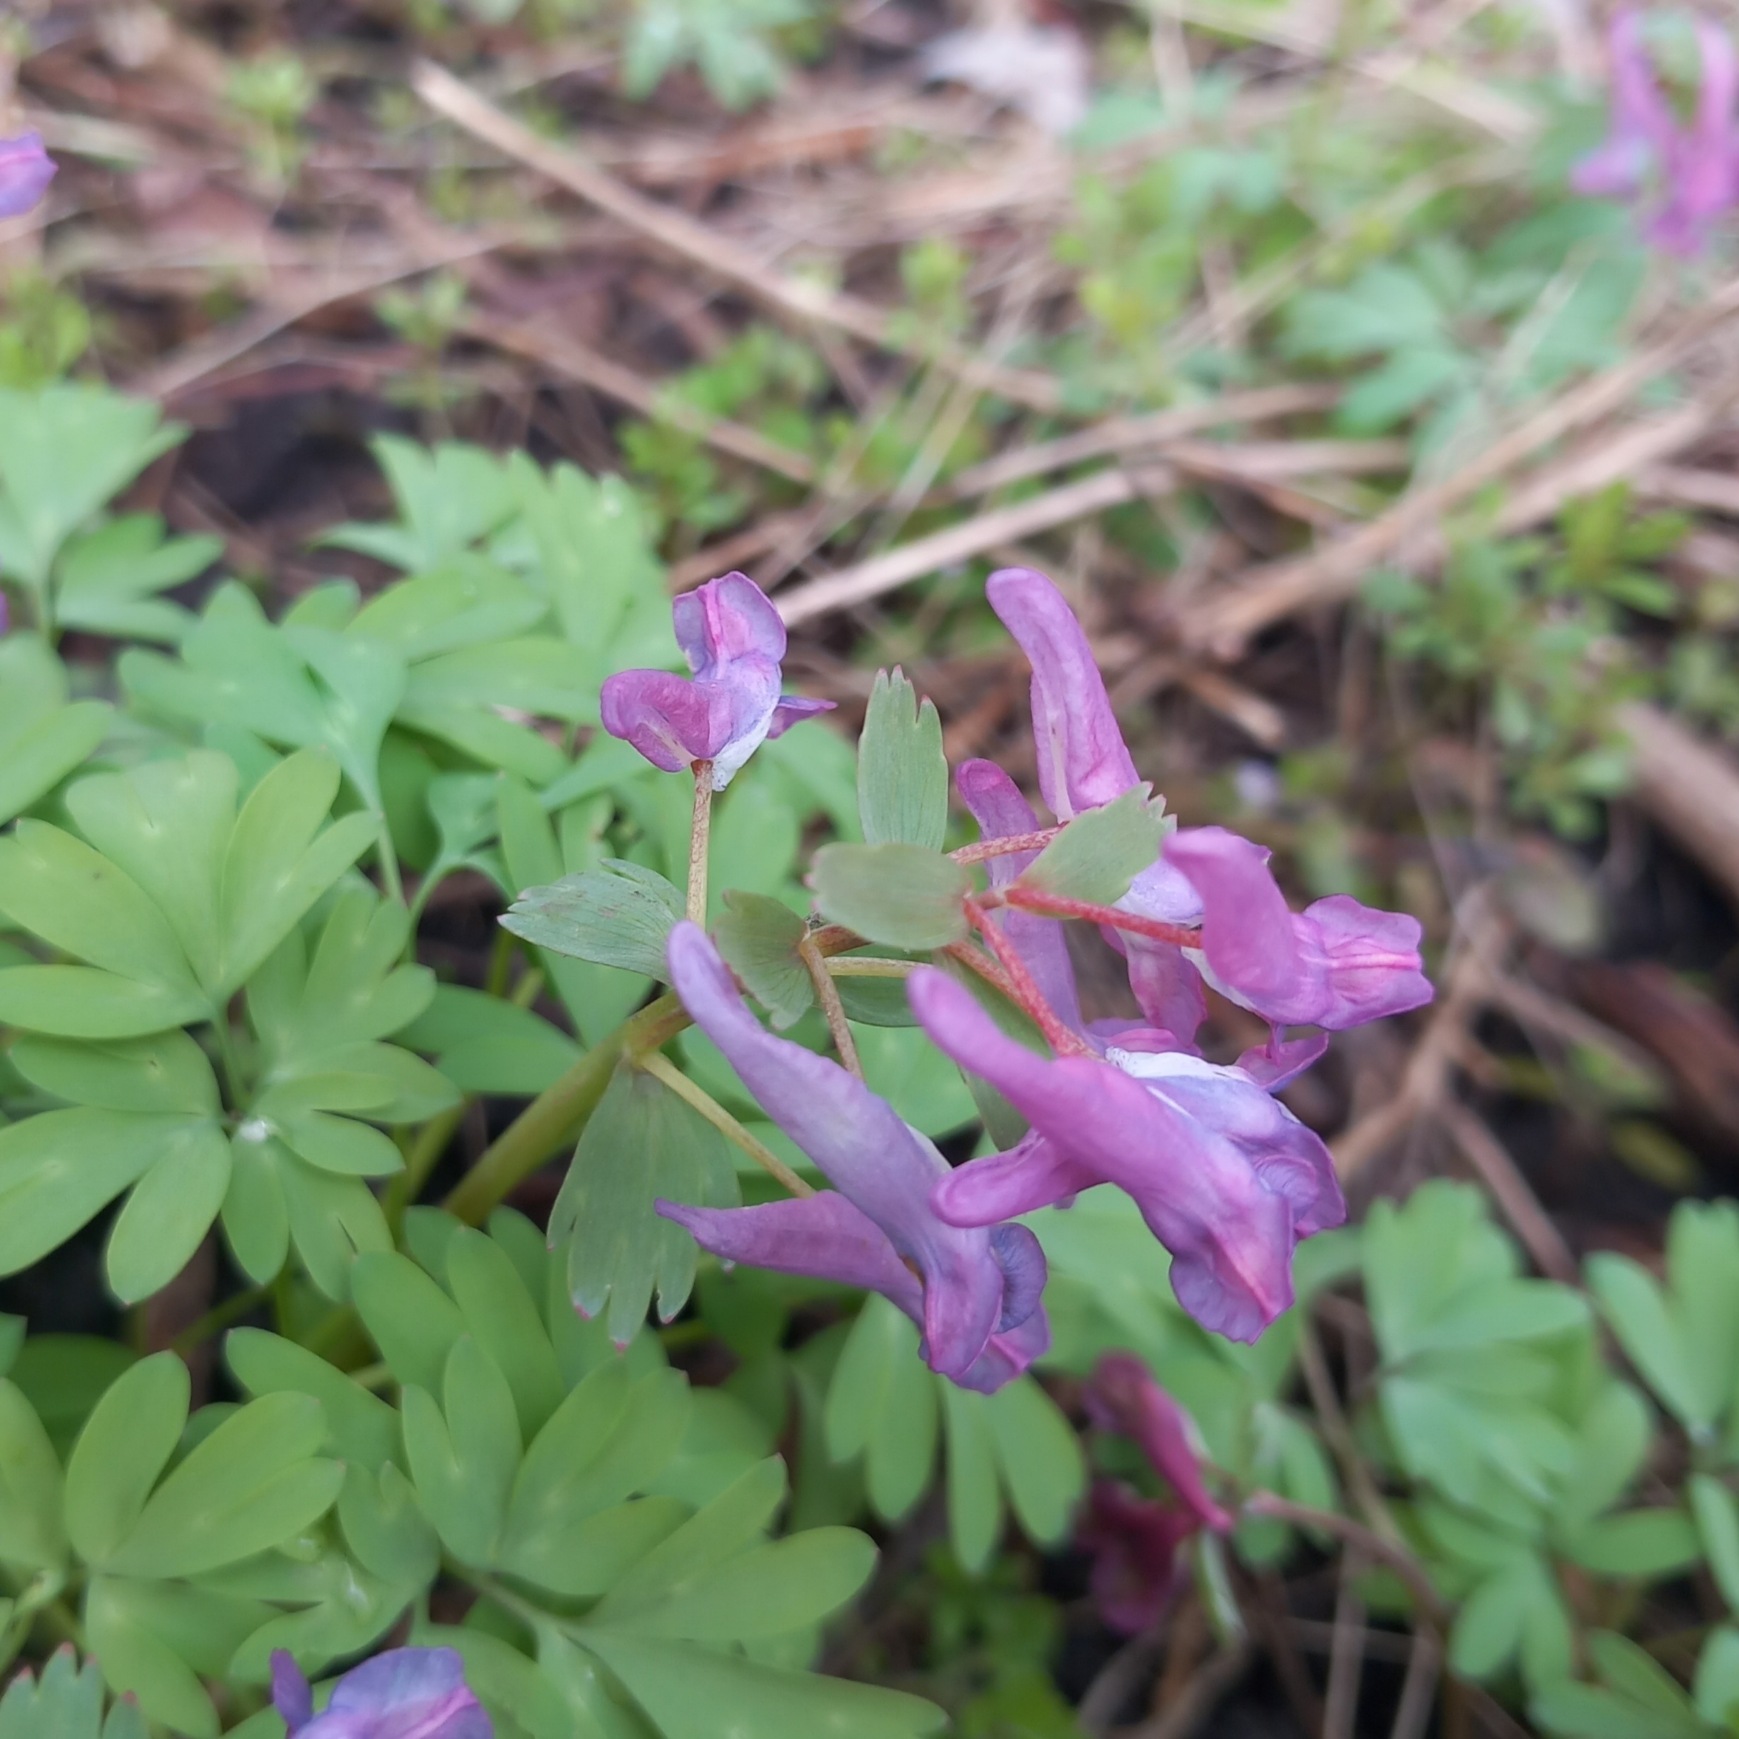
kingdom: Plantae
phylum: Tracheophyta
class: Magnoliopsida
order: Ranunculales
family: Papaveraceae
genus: Corydalis
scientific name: Corydalis solida
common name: Langstilket lærkespore
